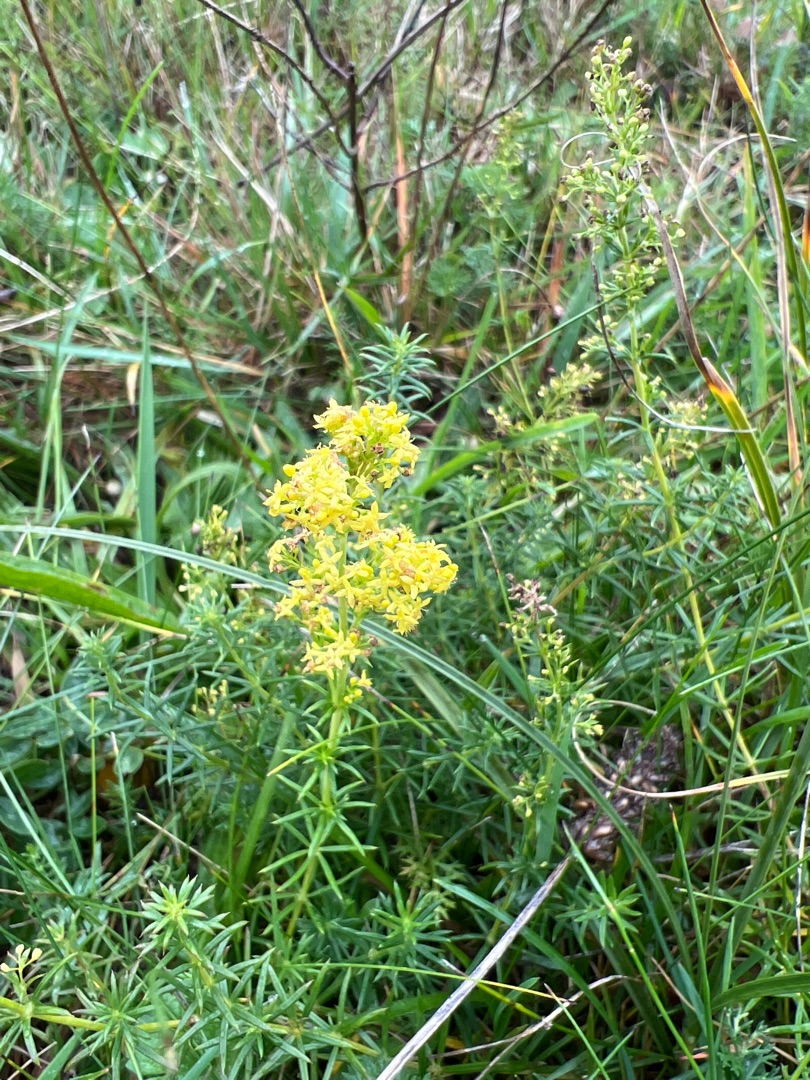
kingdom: Plantae
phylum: Tracheophyta
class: Magnoliopsida
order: Gentianales
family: Rubiaceae
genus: Galium
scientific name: Galium verum
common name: Gul snerre
